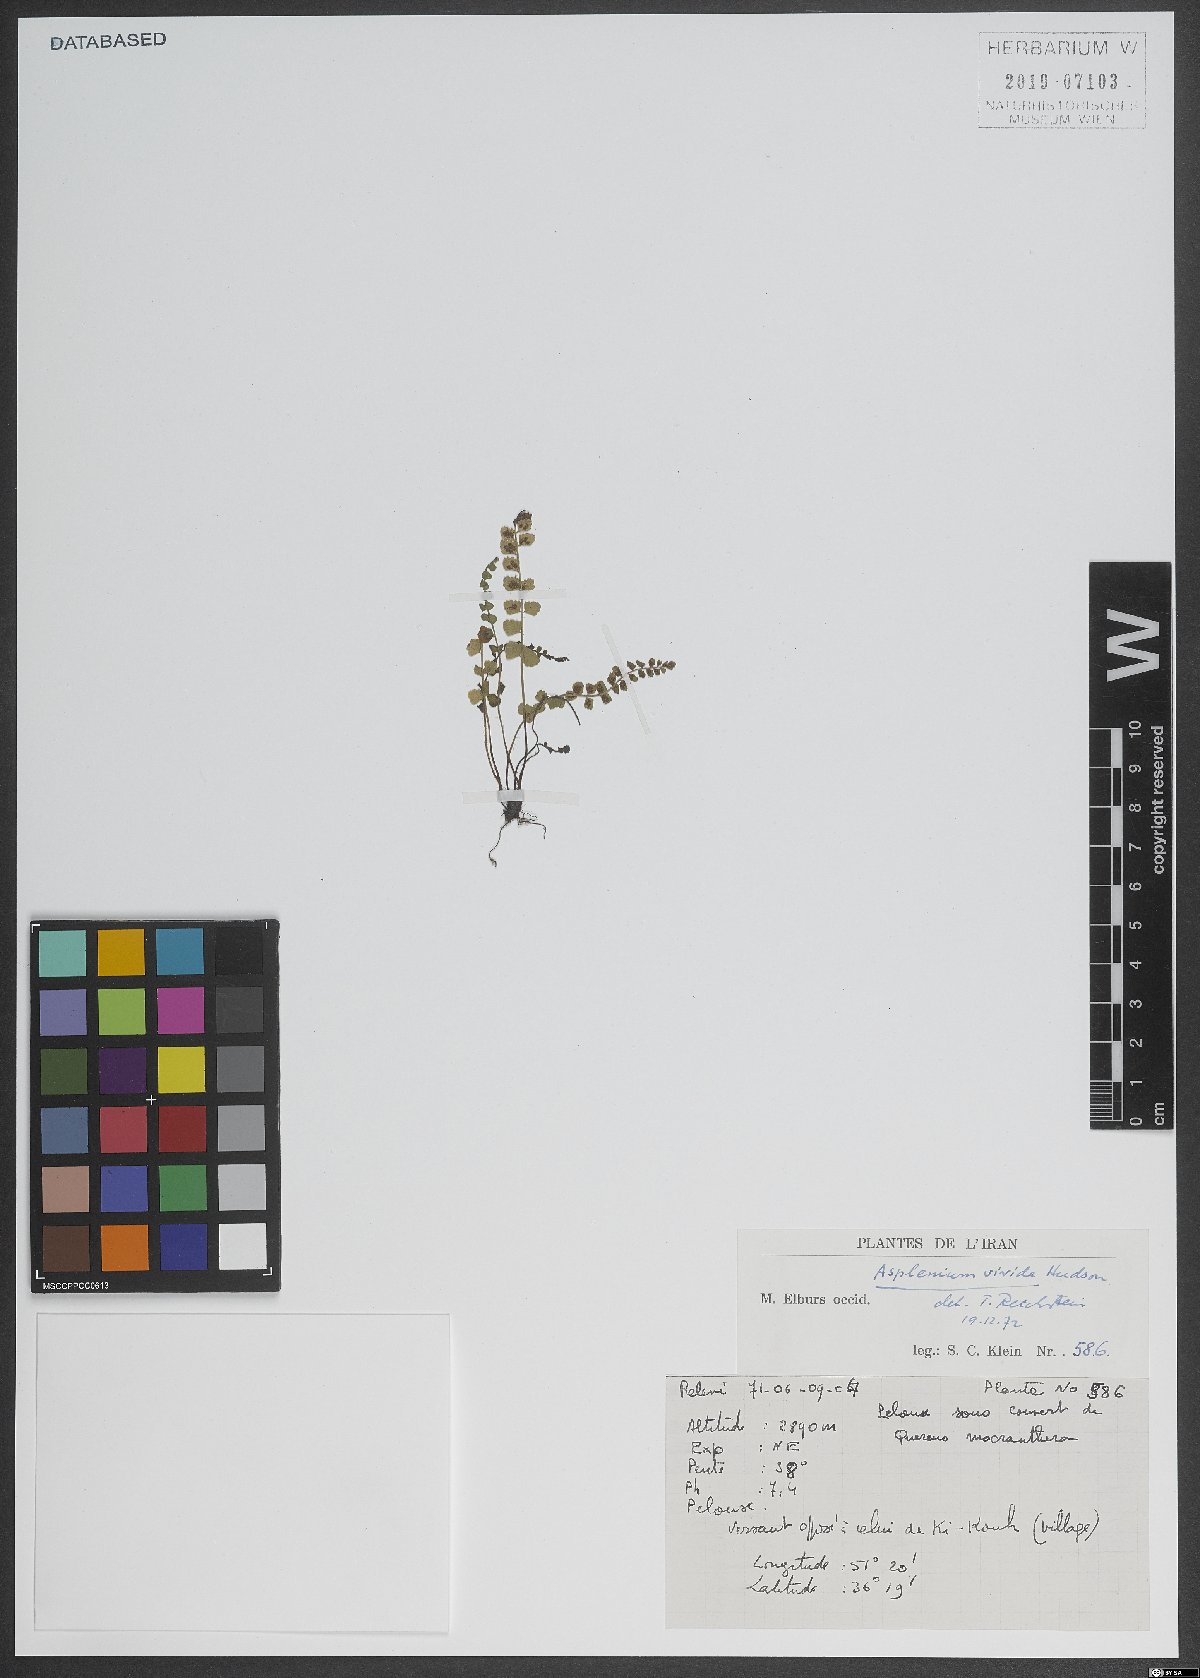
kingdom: Plantae
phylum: Tracheophyta
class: Polypodiopsida
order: Polypodiales
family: Aspleniaceae
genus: Asplenium
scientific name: Asplenium viride
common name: Green spleenwort
